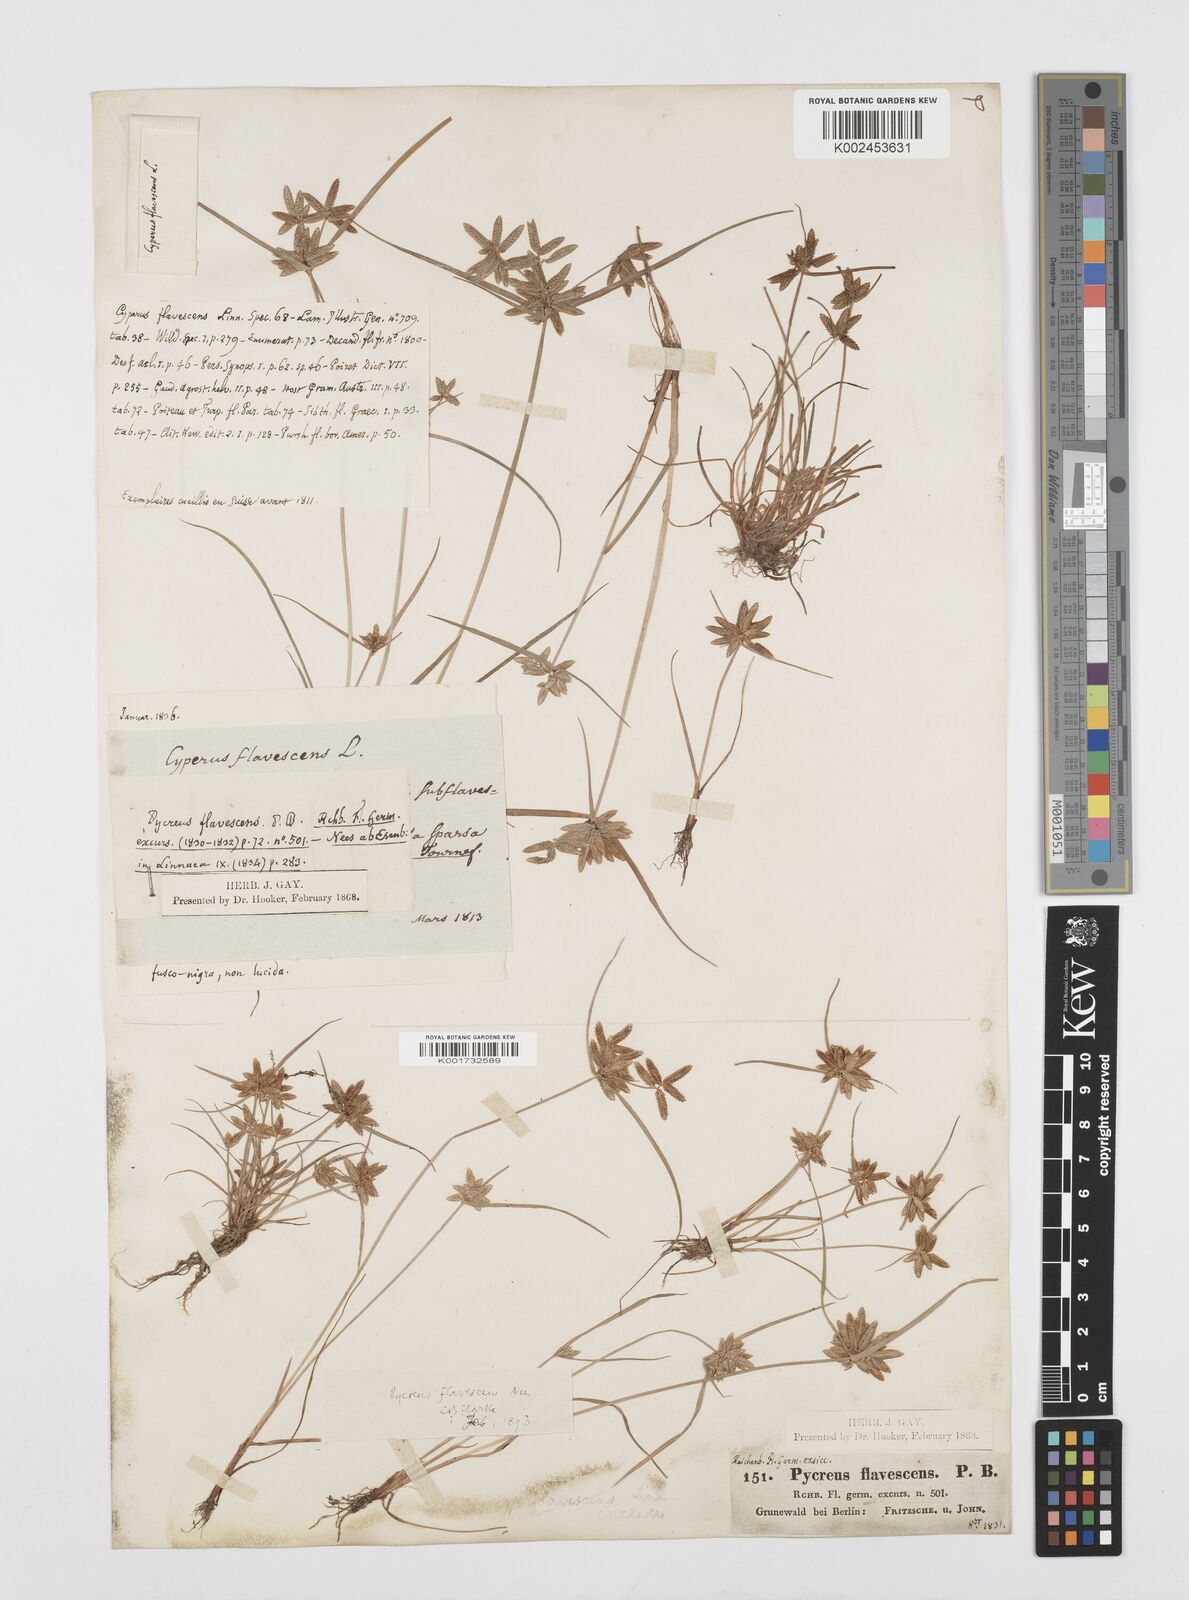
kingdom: Plantae
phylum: Tracheophyta
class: Liliopsida
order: Poales
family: Cyperaceae
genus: Cyperus
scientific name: Cyperus flavescens
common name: Yellow galingale
